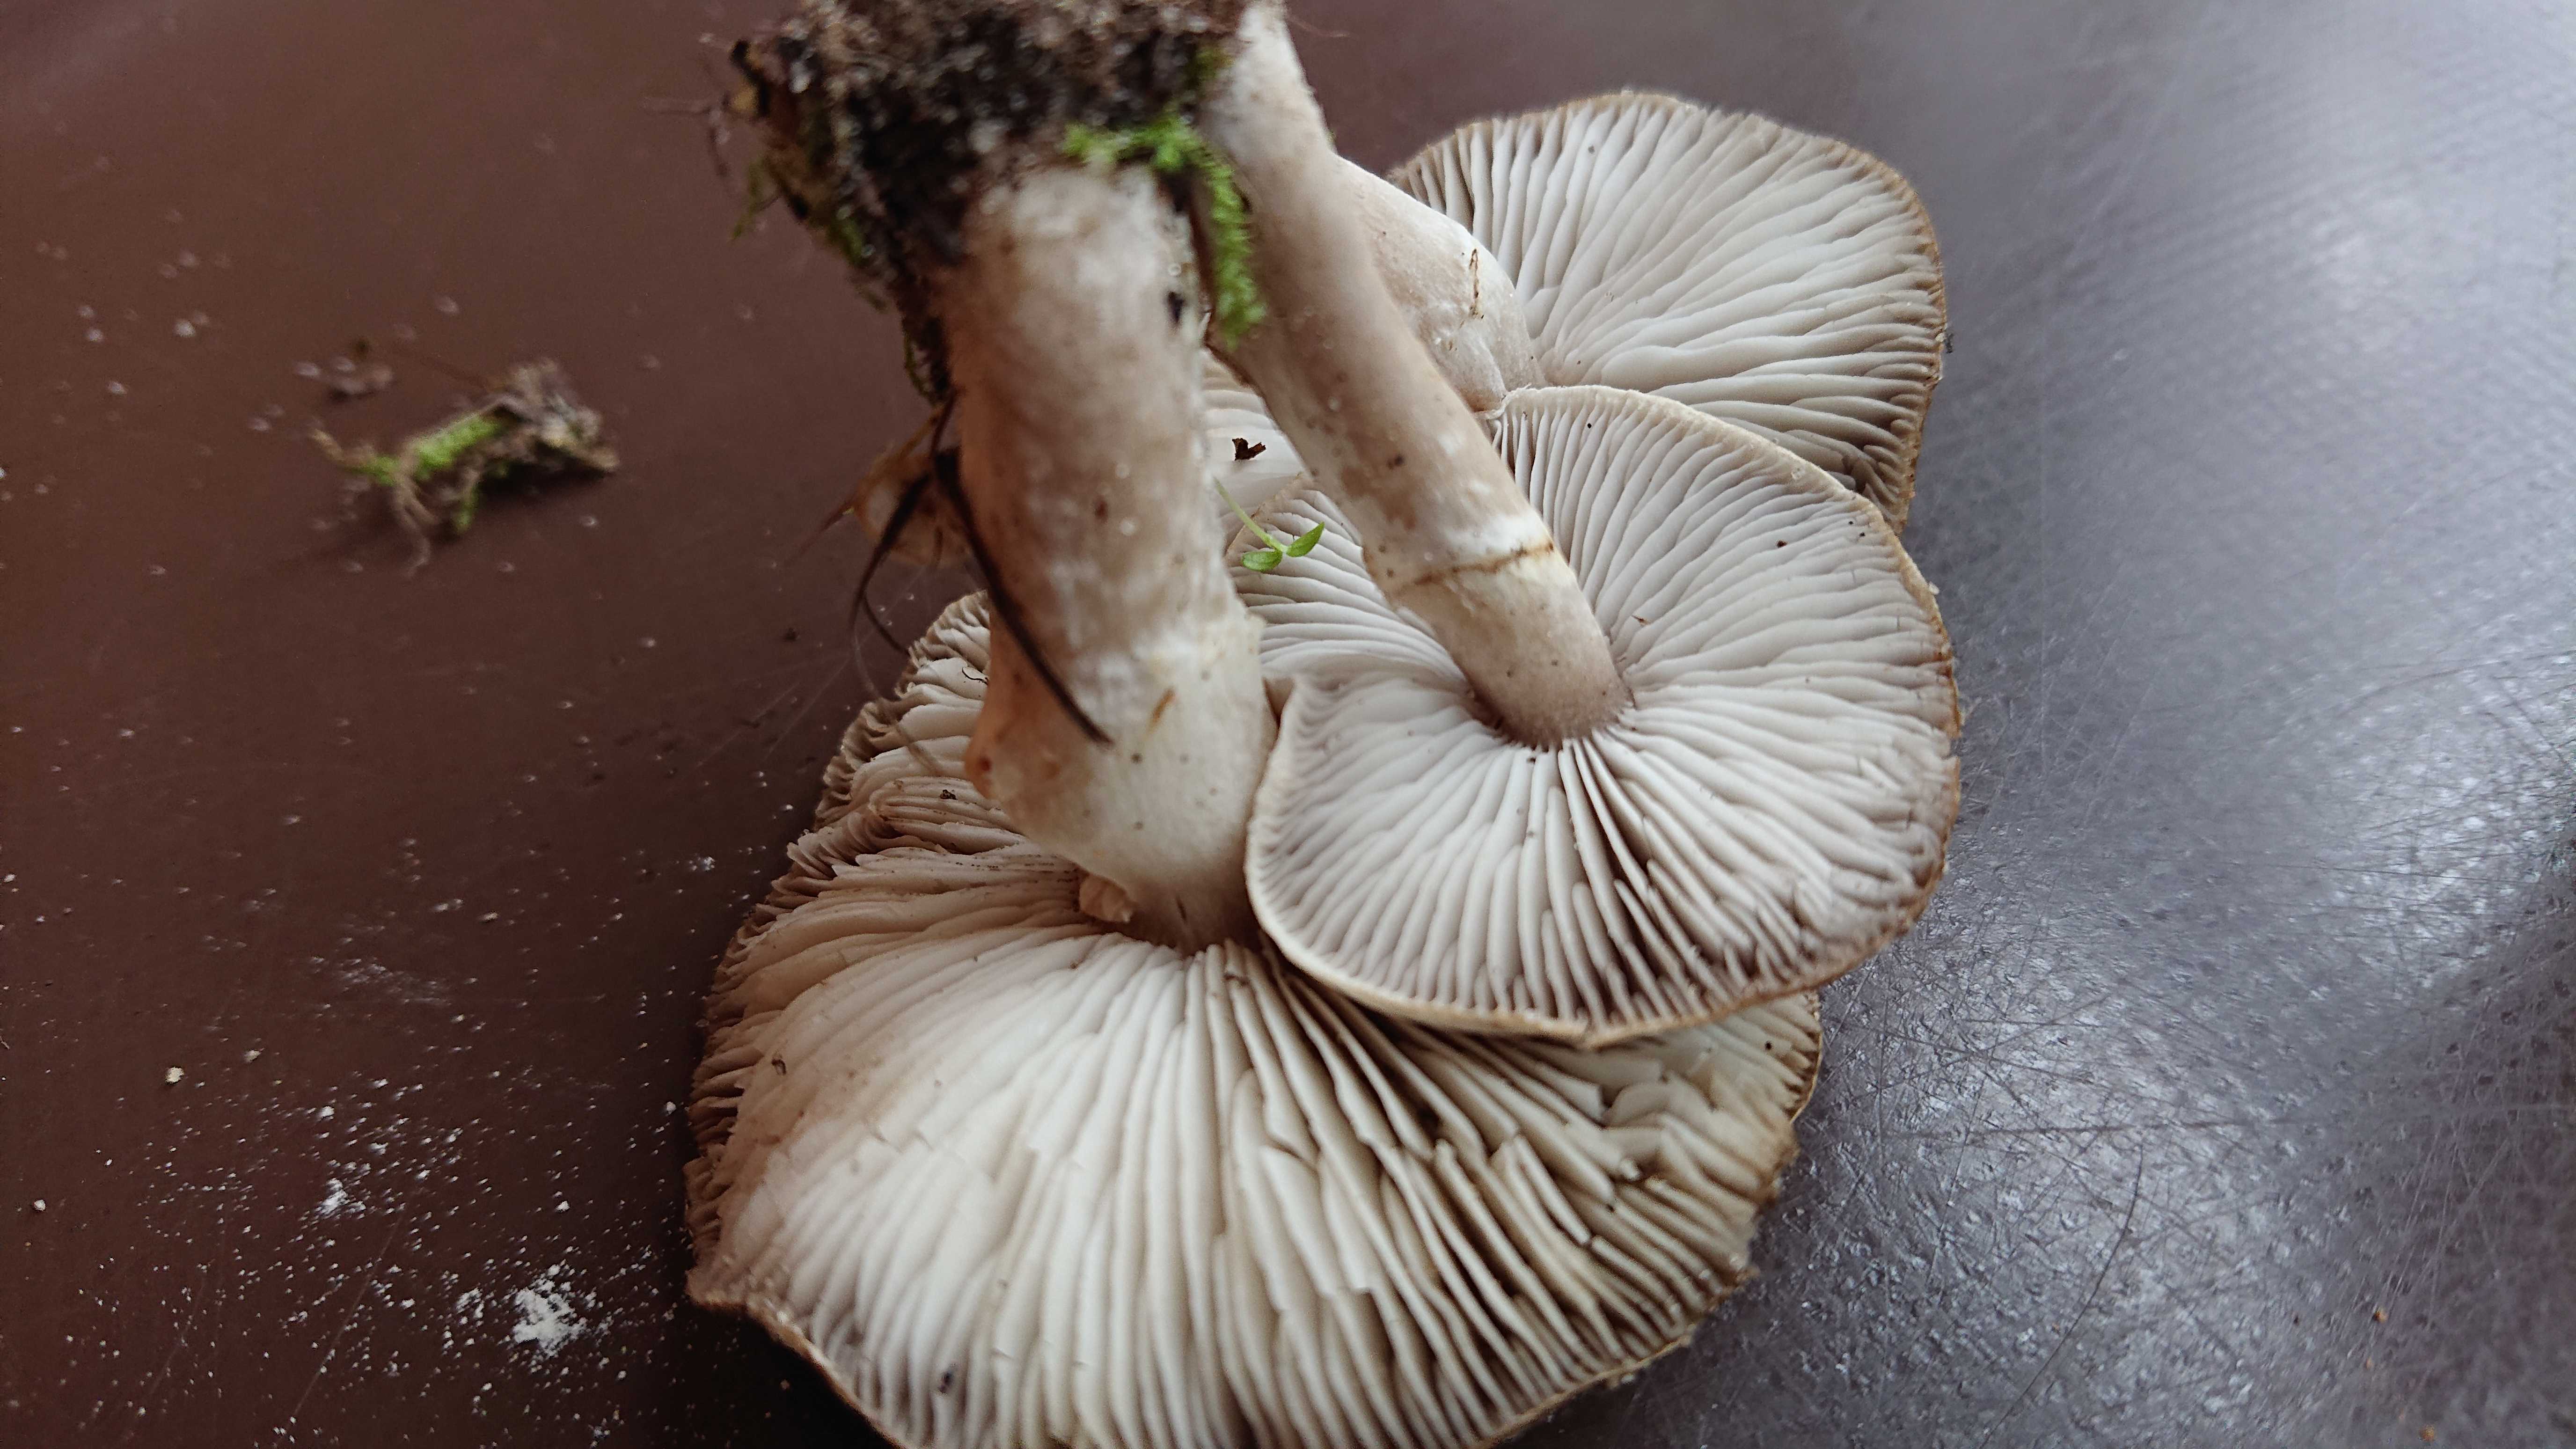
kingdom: Fungi
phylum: Basidiomycota
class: Agaricomycetes
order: Agaricales
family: Tricholomataceae
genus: Tricholoma
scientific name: Tricholoma cingulatum
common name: ring-ridderhat
